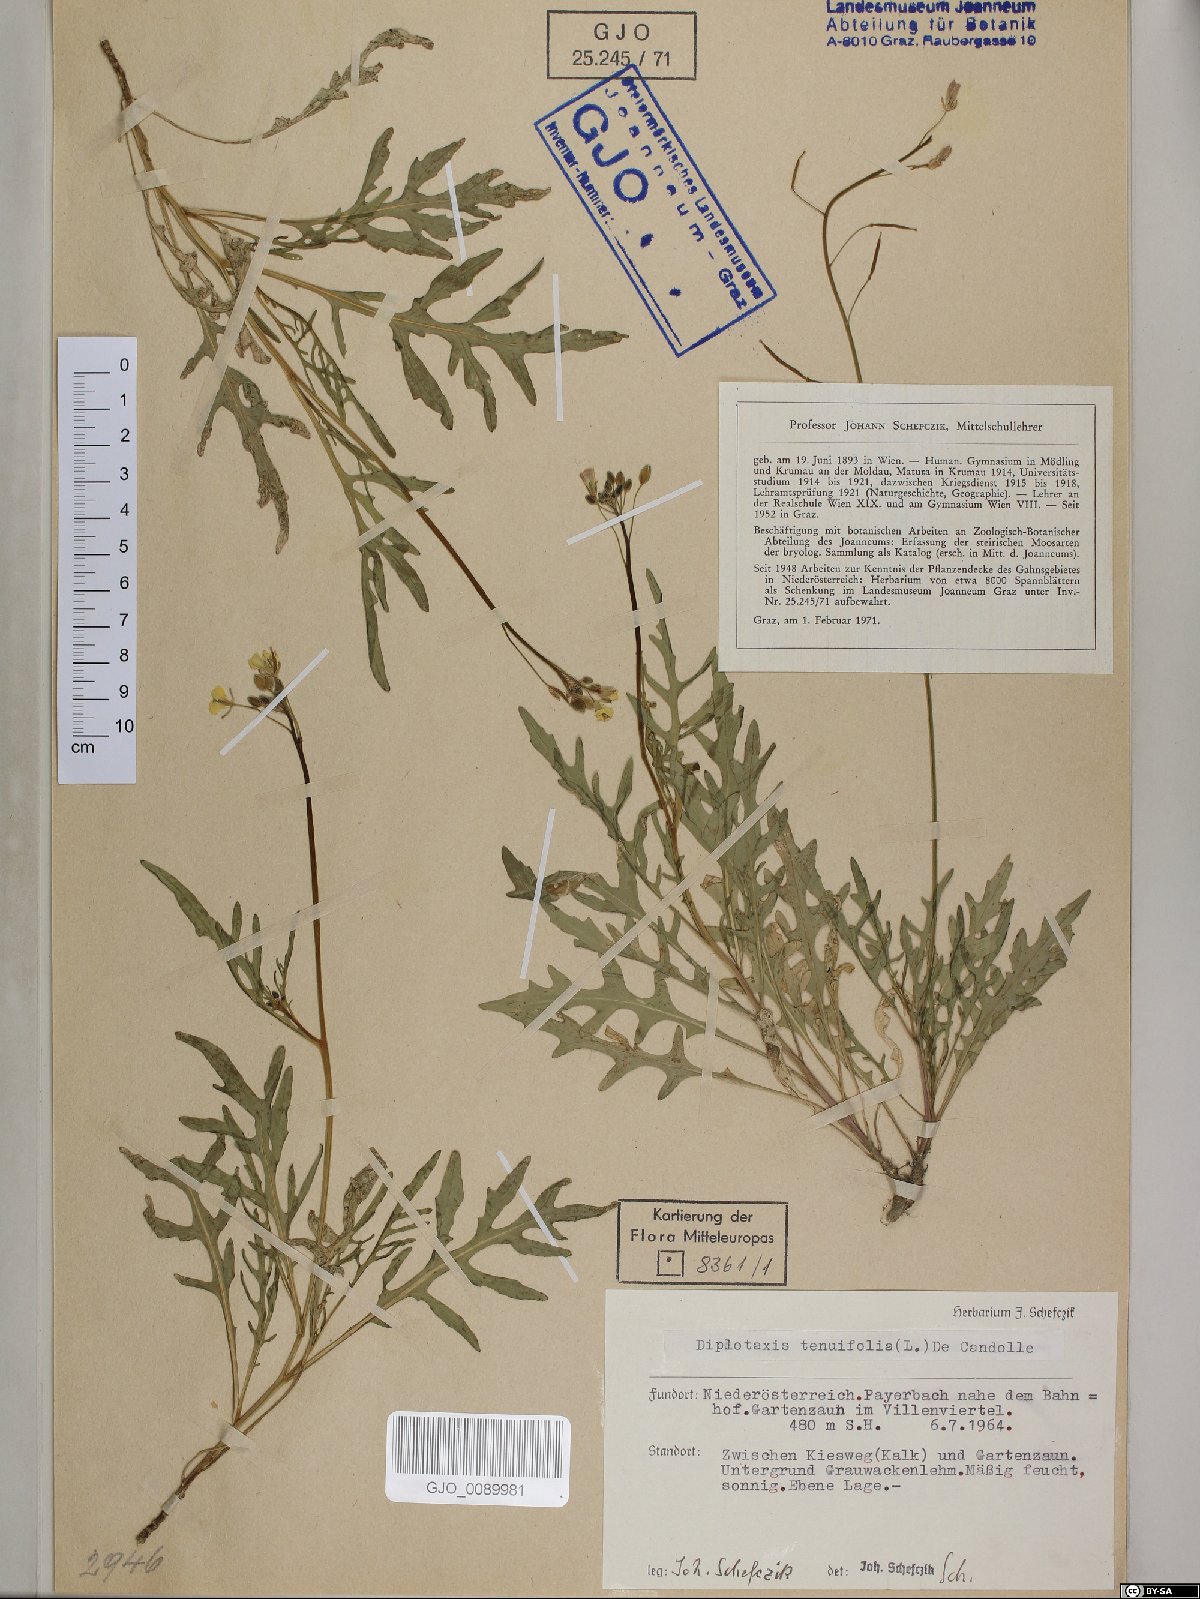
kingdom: Plantae
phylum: Tracheophyta
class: Magnoliopsida
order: Brassicales
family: Brassicaceae
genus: Diplotaxis
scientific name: Diplotaxis tenuifolia
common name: Perennial wall-rocket
